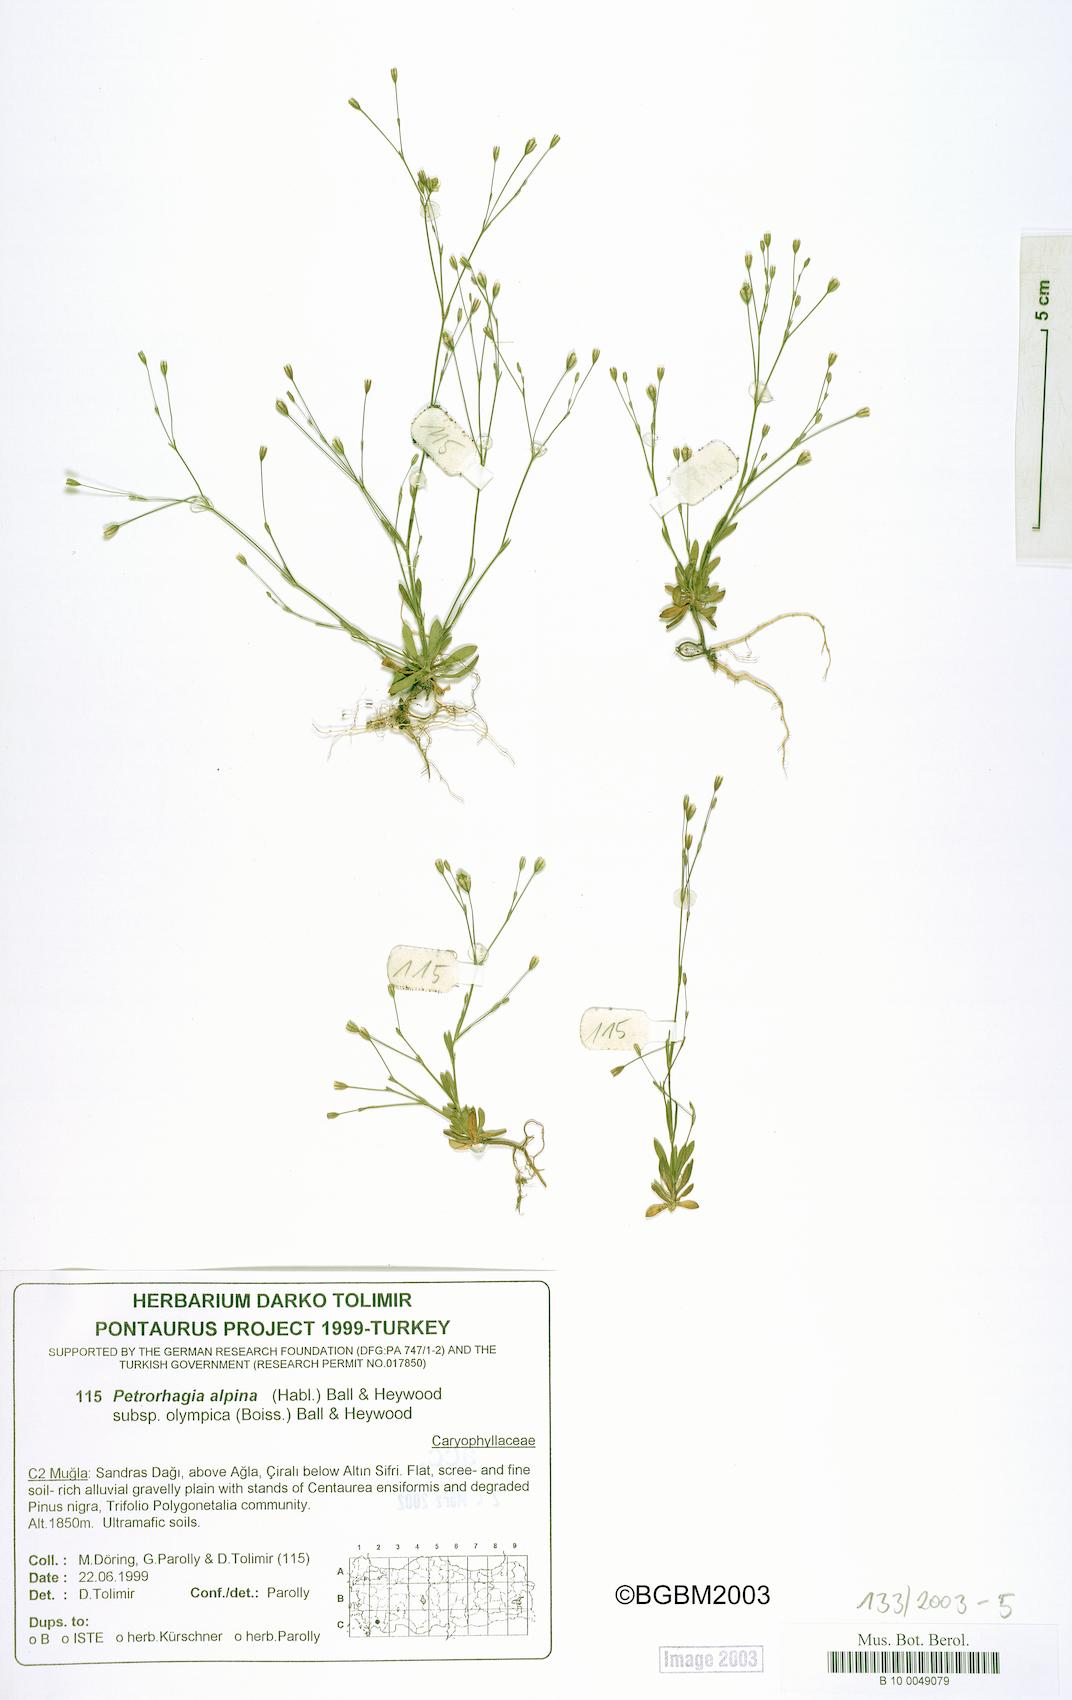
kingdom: Plantae
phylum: Tracheophyta
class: Magnoliopsida
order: Caryophyllales
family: Caryophyllaceae
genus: Petrorhagia
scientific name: Petrorhagia alpina
